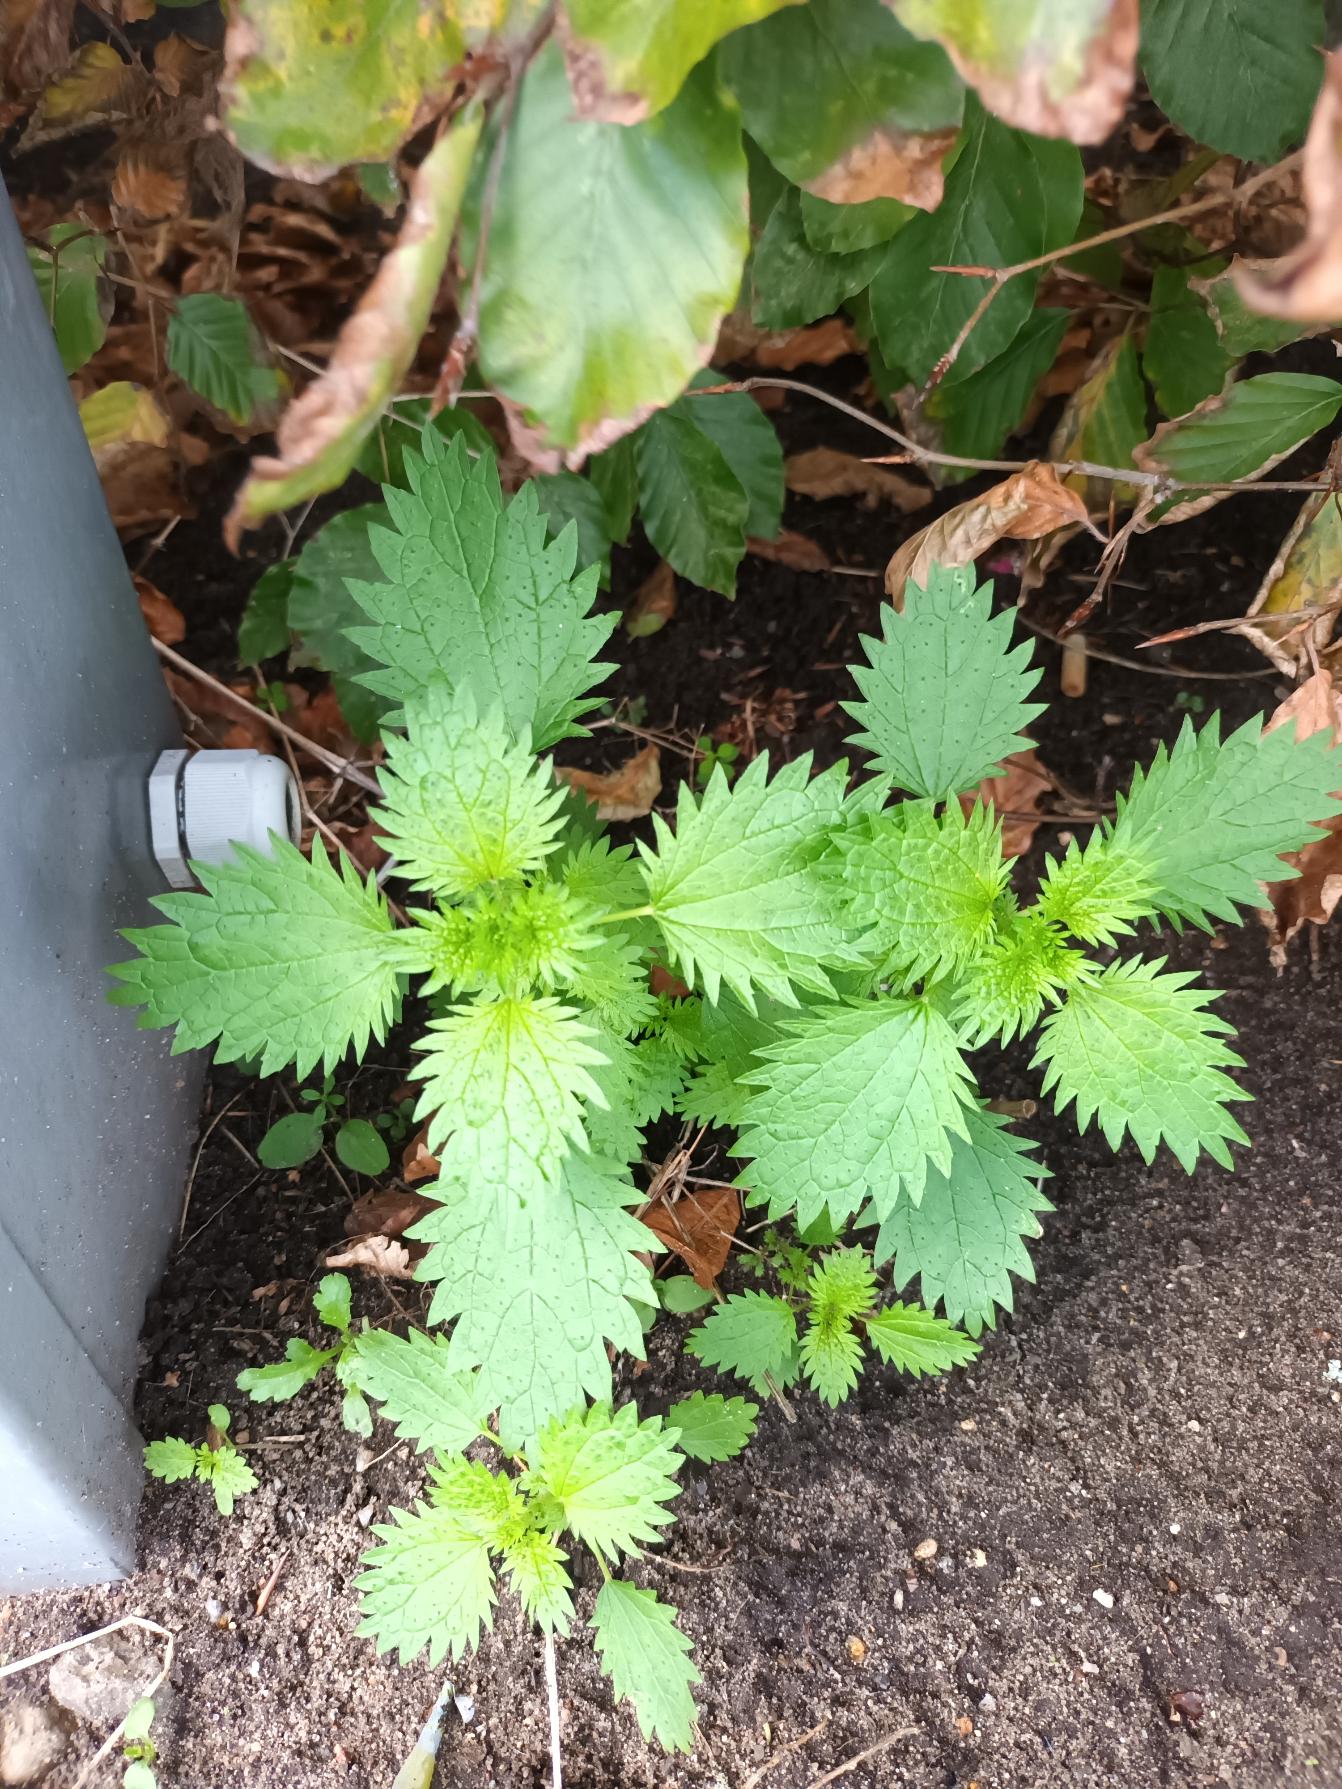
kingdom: Plantae
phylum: Tracheophyta
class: Magnoliopsida
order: Rosales
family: Urticaceae
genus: Urtica
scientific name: Urtica urens
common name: Liden nælde
